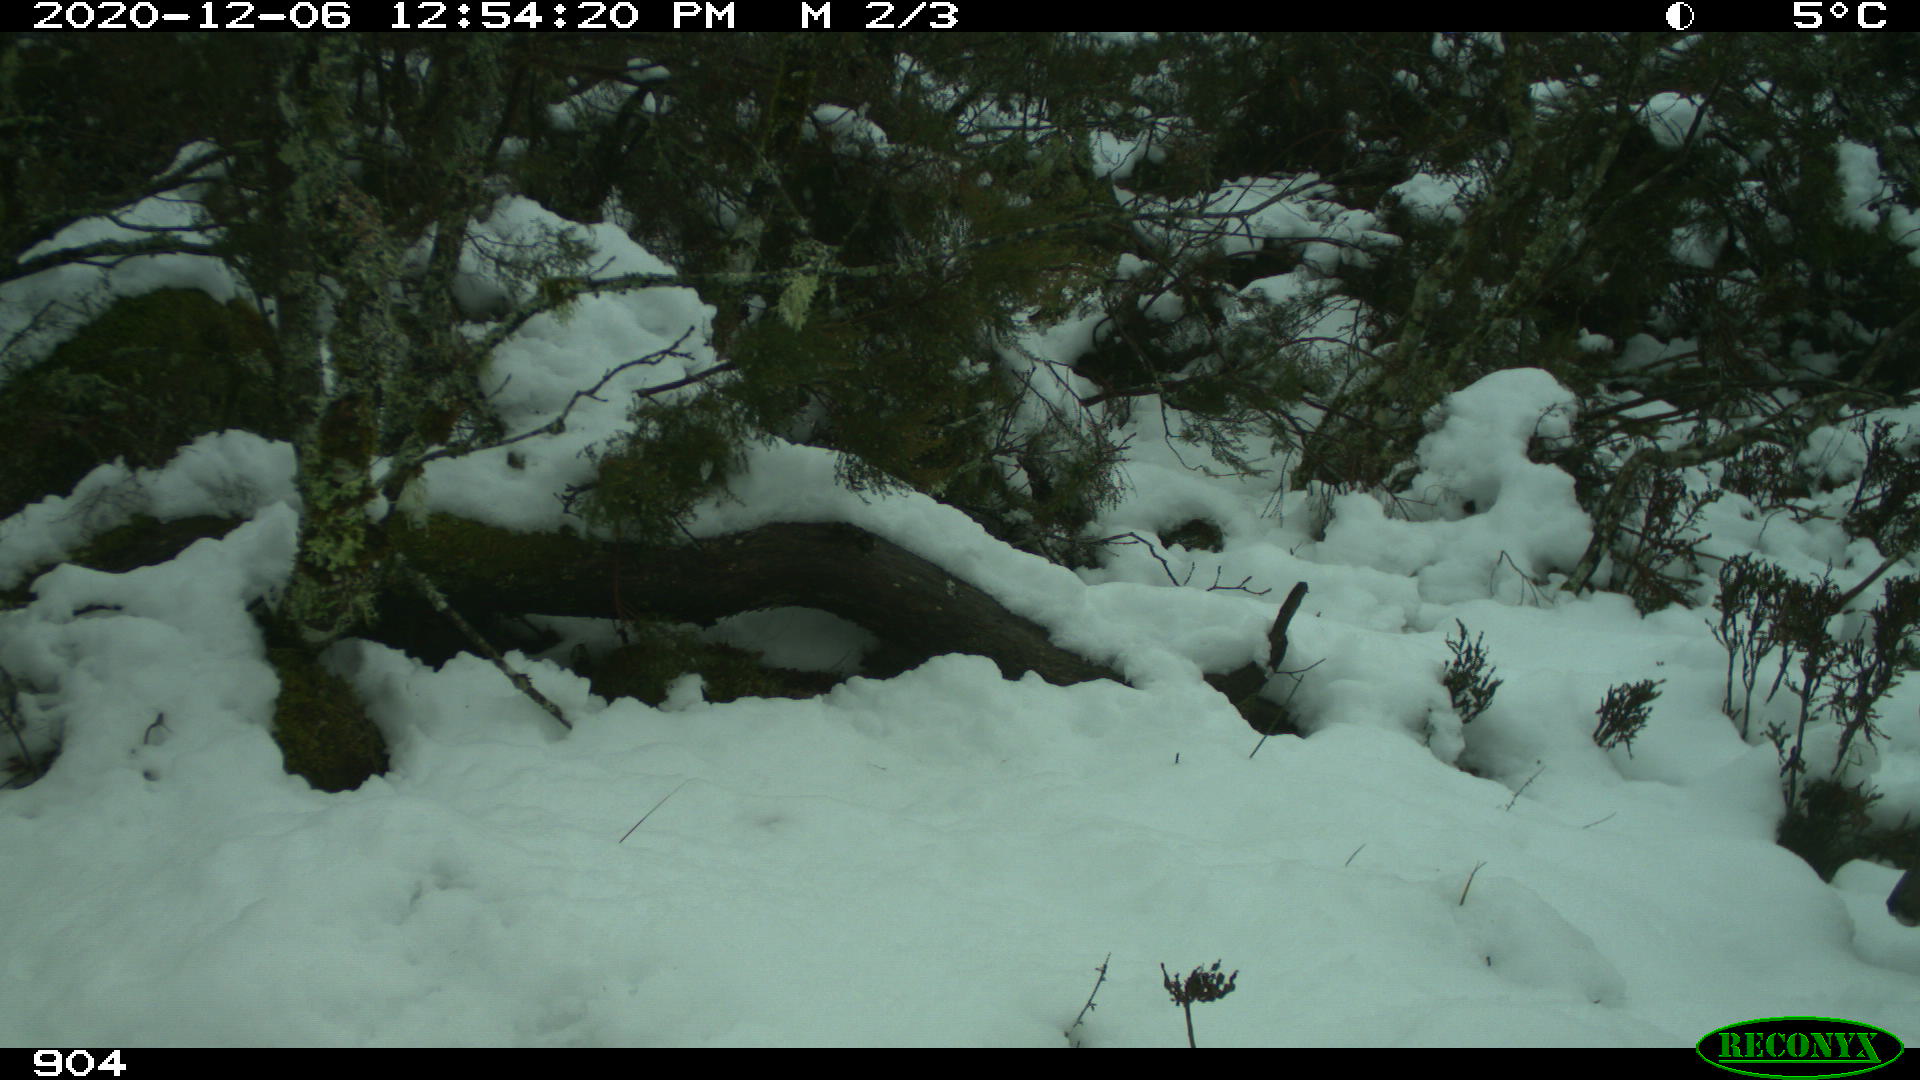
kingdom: Animalia
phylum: Chordata
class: Mammalia
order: Artiodactyla
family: Cervidae
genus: Capreolus
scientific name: Capreolus capreolus
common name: Western roe deer
